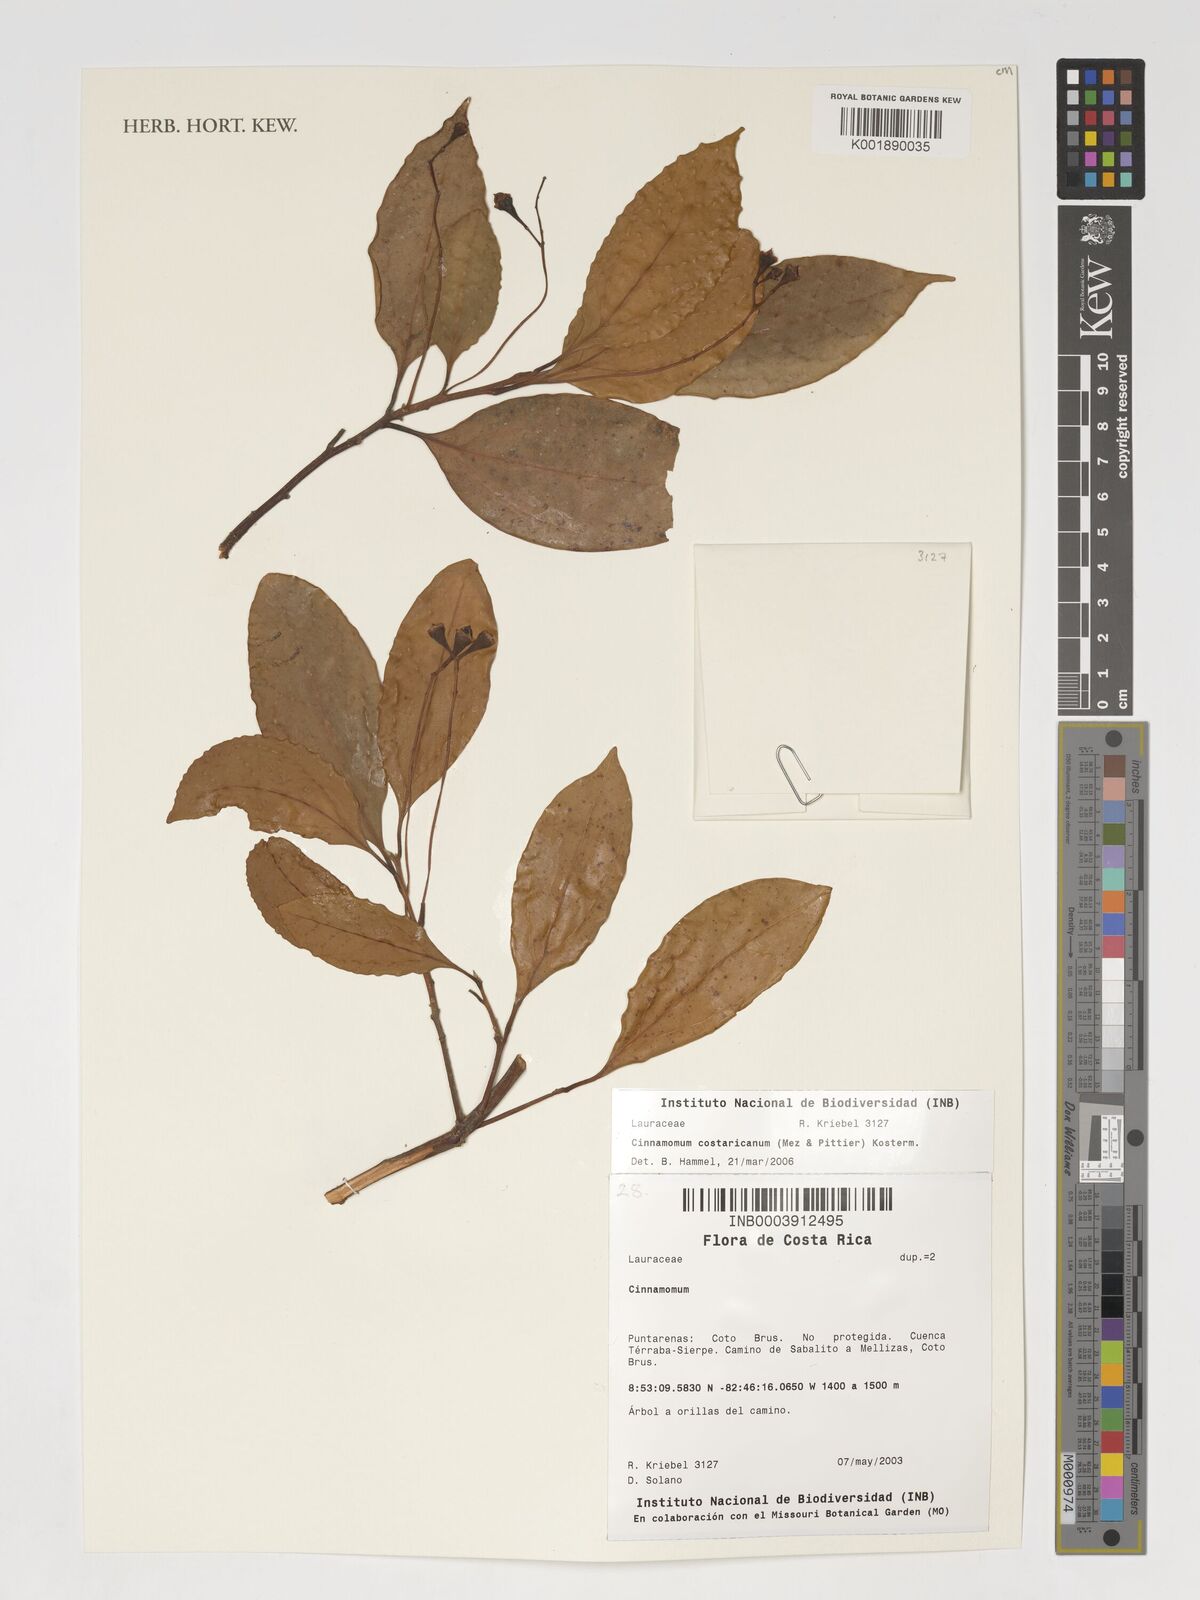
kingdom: Plantae
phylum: Tracheophyta
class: Magnoliopsida
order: Laurales
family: Lauraceae
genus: Aiouea
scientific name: Aiouea pittieri
